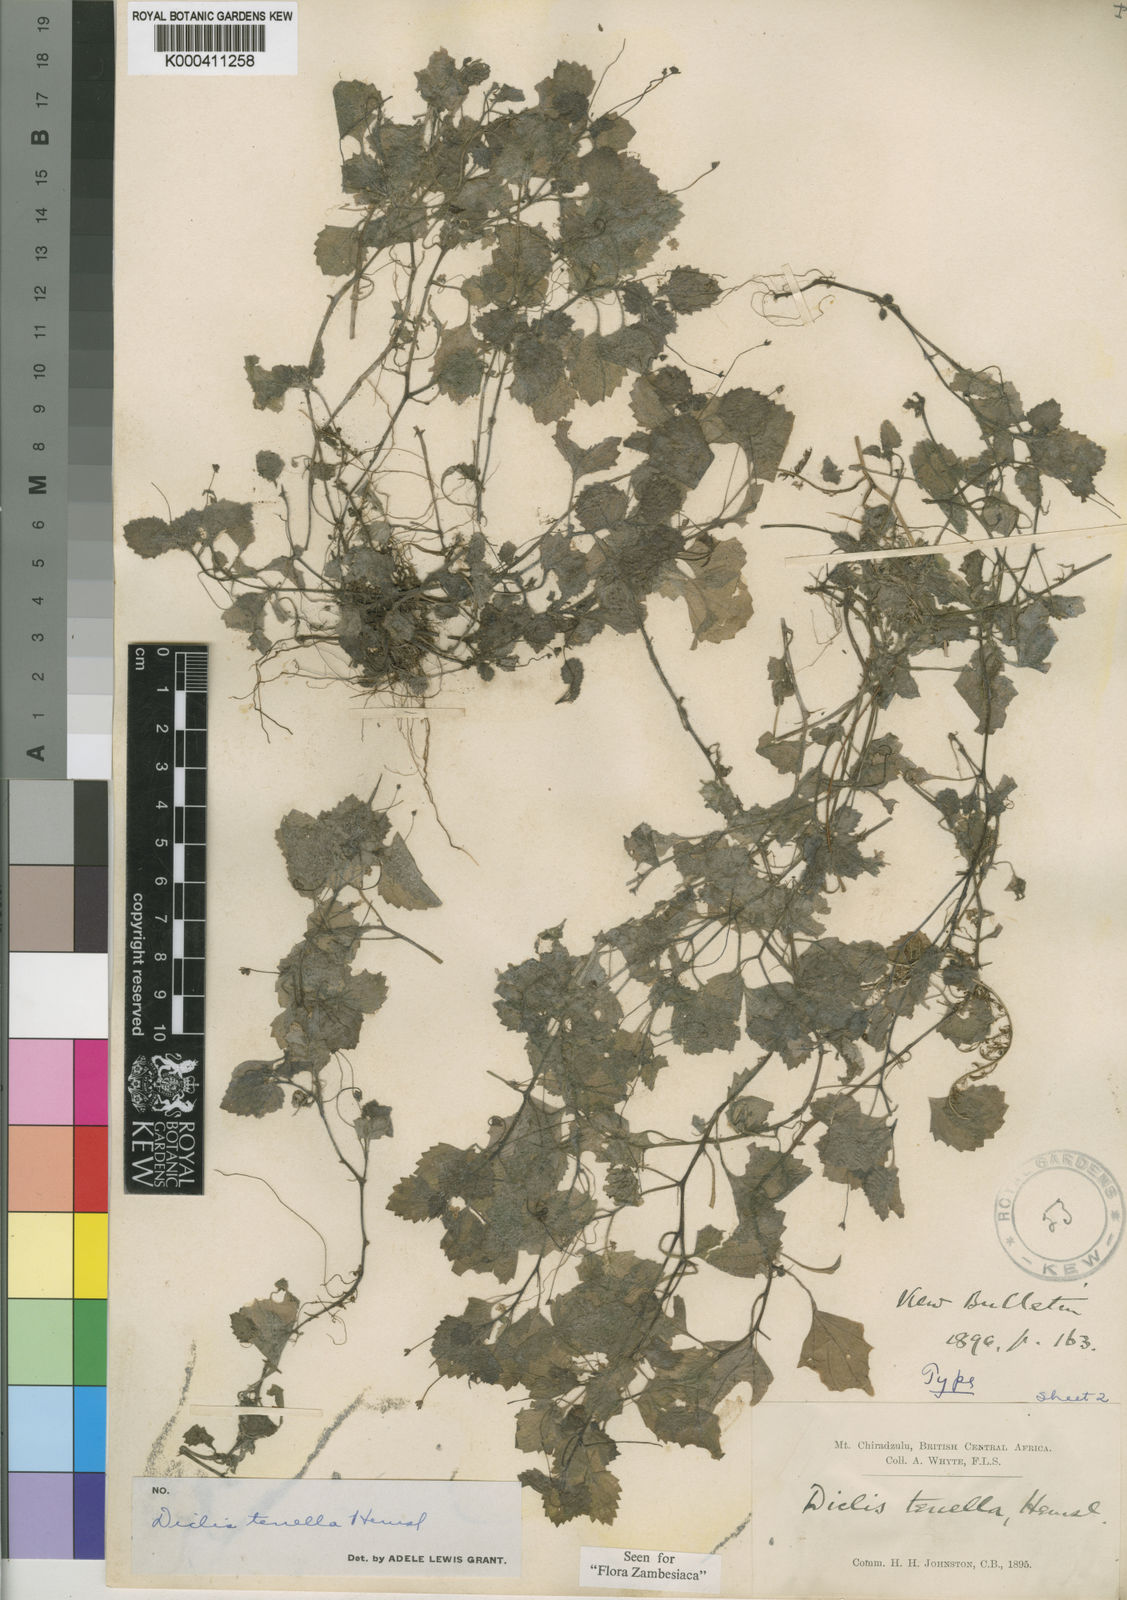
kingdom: Plantae
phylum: Tracheophyta
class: Magnoliopsida
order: Lamiales
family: Scrophulariaceae
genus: Diclis
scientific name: Diclis tenella
